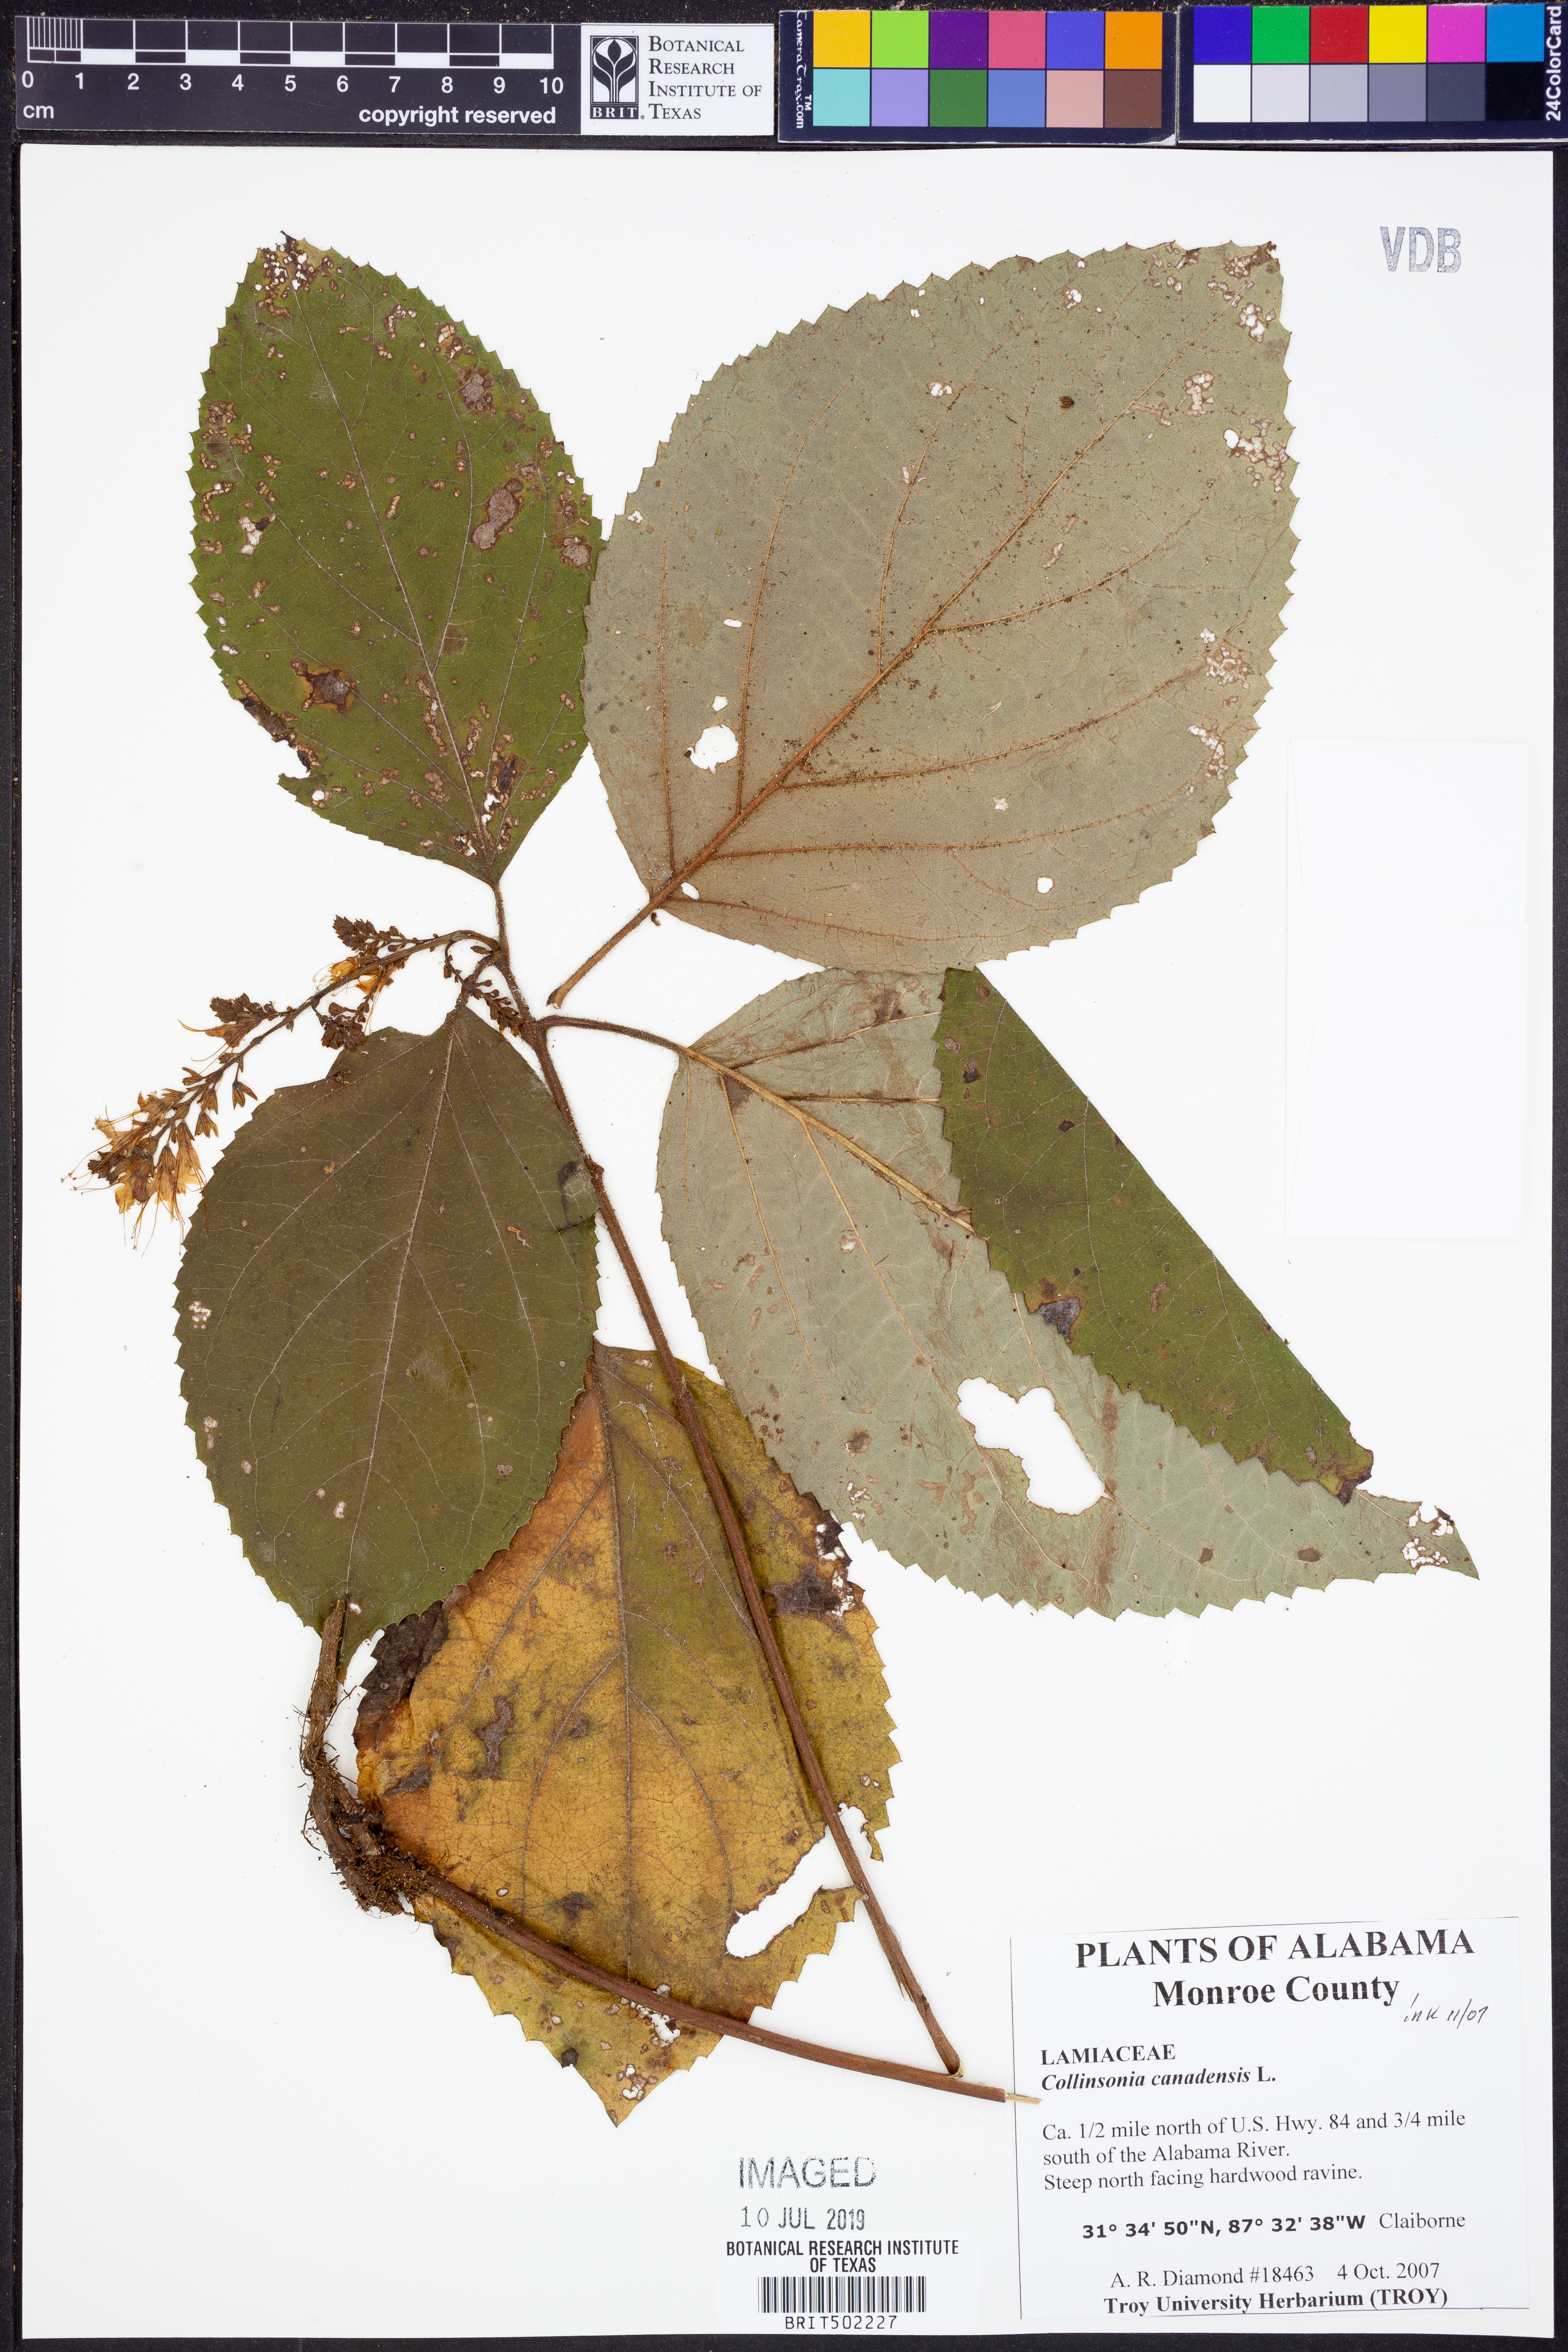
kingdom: Plantae
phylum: Tracheophyta
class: Magnoliopsida
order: Lamiales
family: Lamiaceae
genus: Collinsonia
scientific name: Collinsonia canadensis
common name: Northern horsebalm
